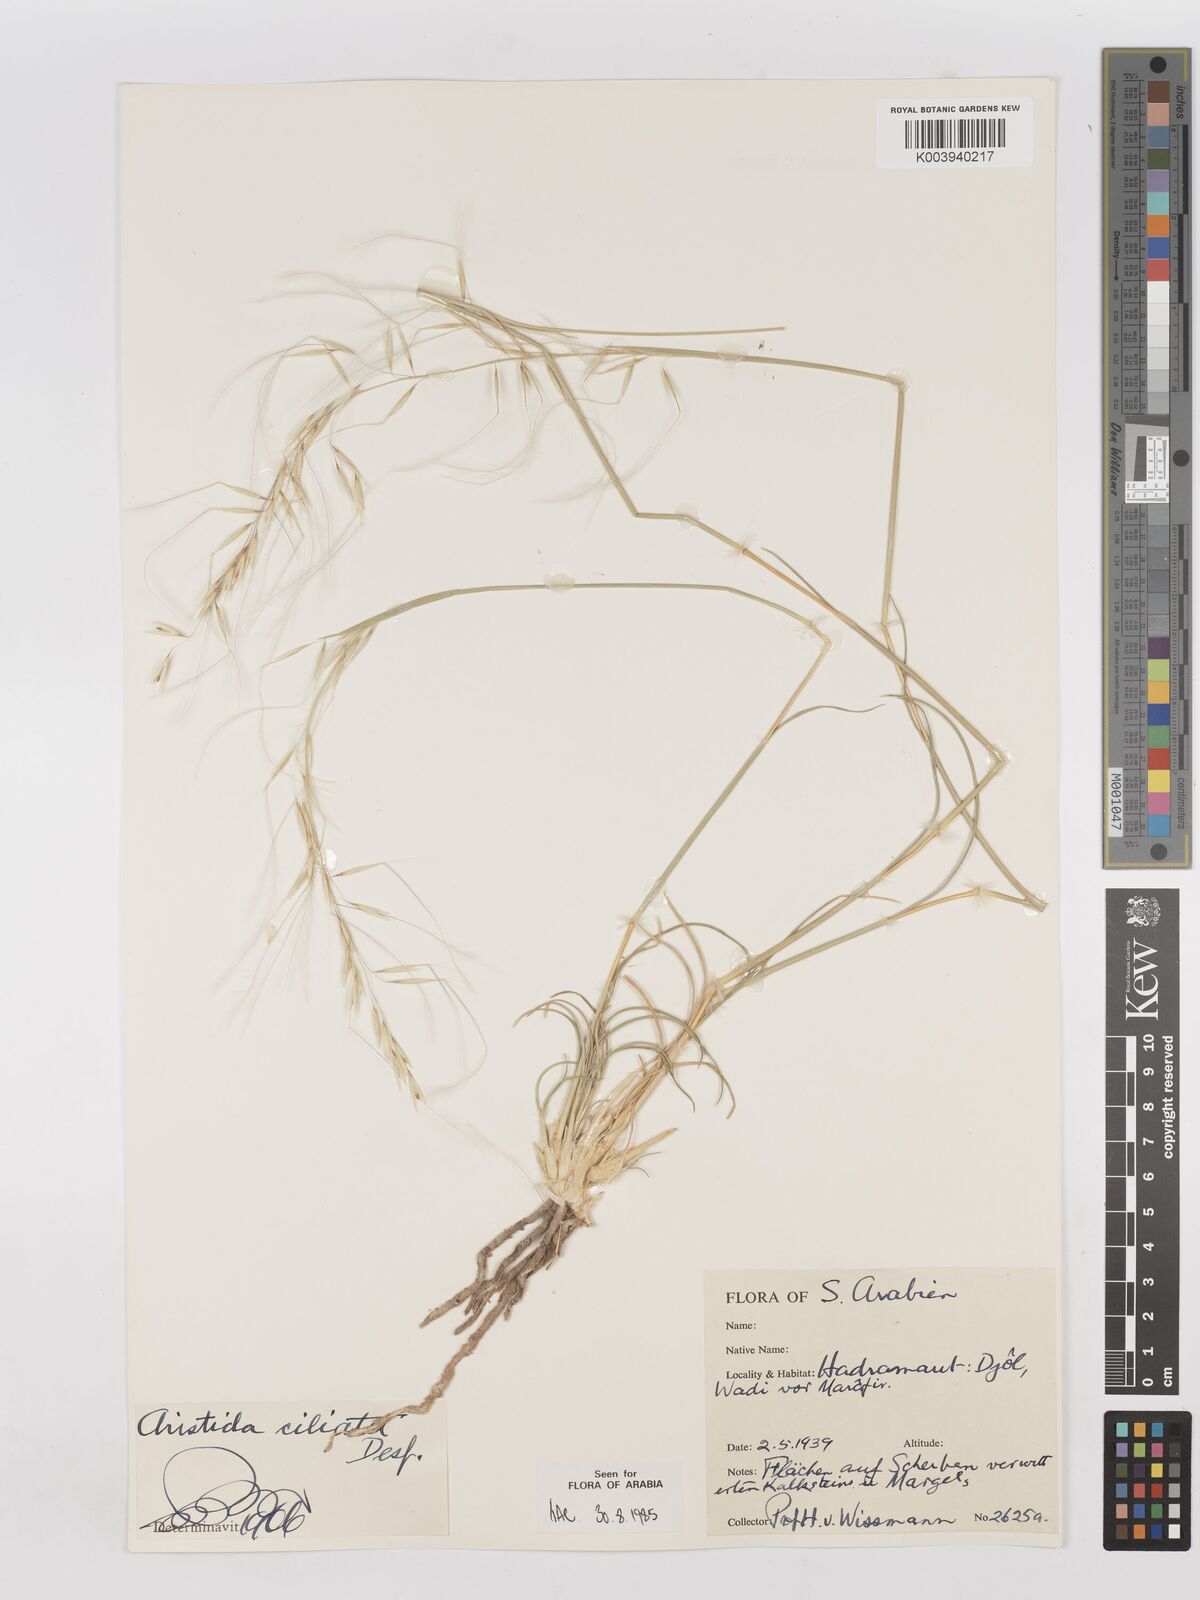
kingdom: Plantae
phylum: Tracheophyta
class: Liliopsida
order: Poales
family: Poaceae
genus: Stipagrostis
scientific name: Stipagrostis ciliata
